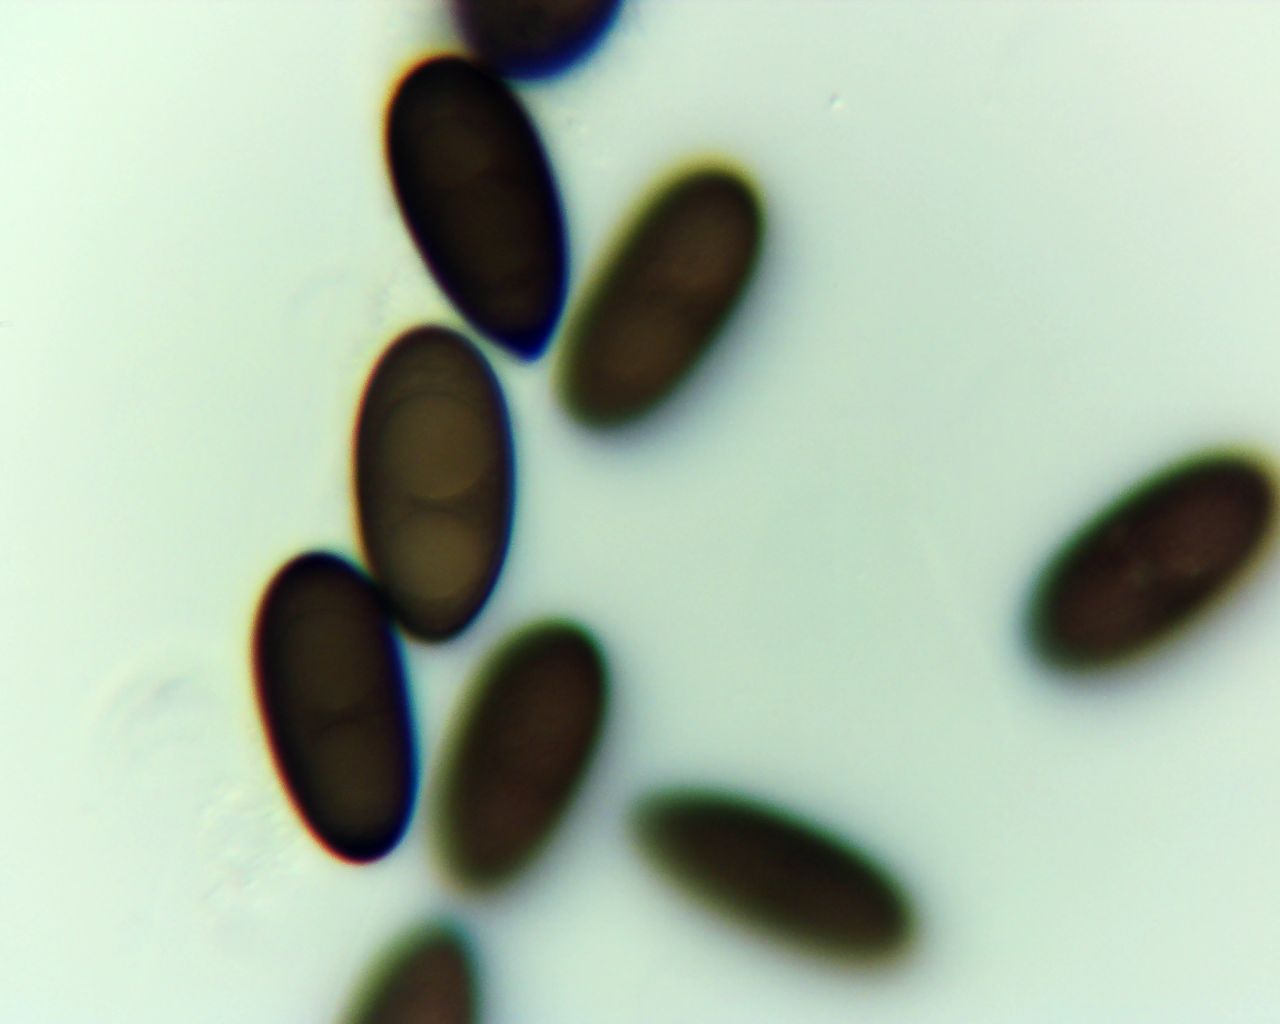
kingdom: Fungi
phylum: Ascomycota
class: Sordariomycetes
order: Xylariales
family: Xylariaceae
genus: Entoleuca
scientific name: Entoleuca mammata
